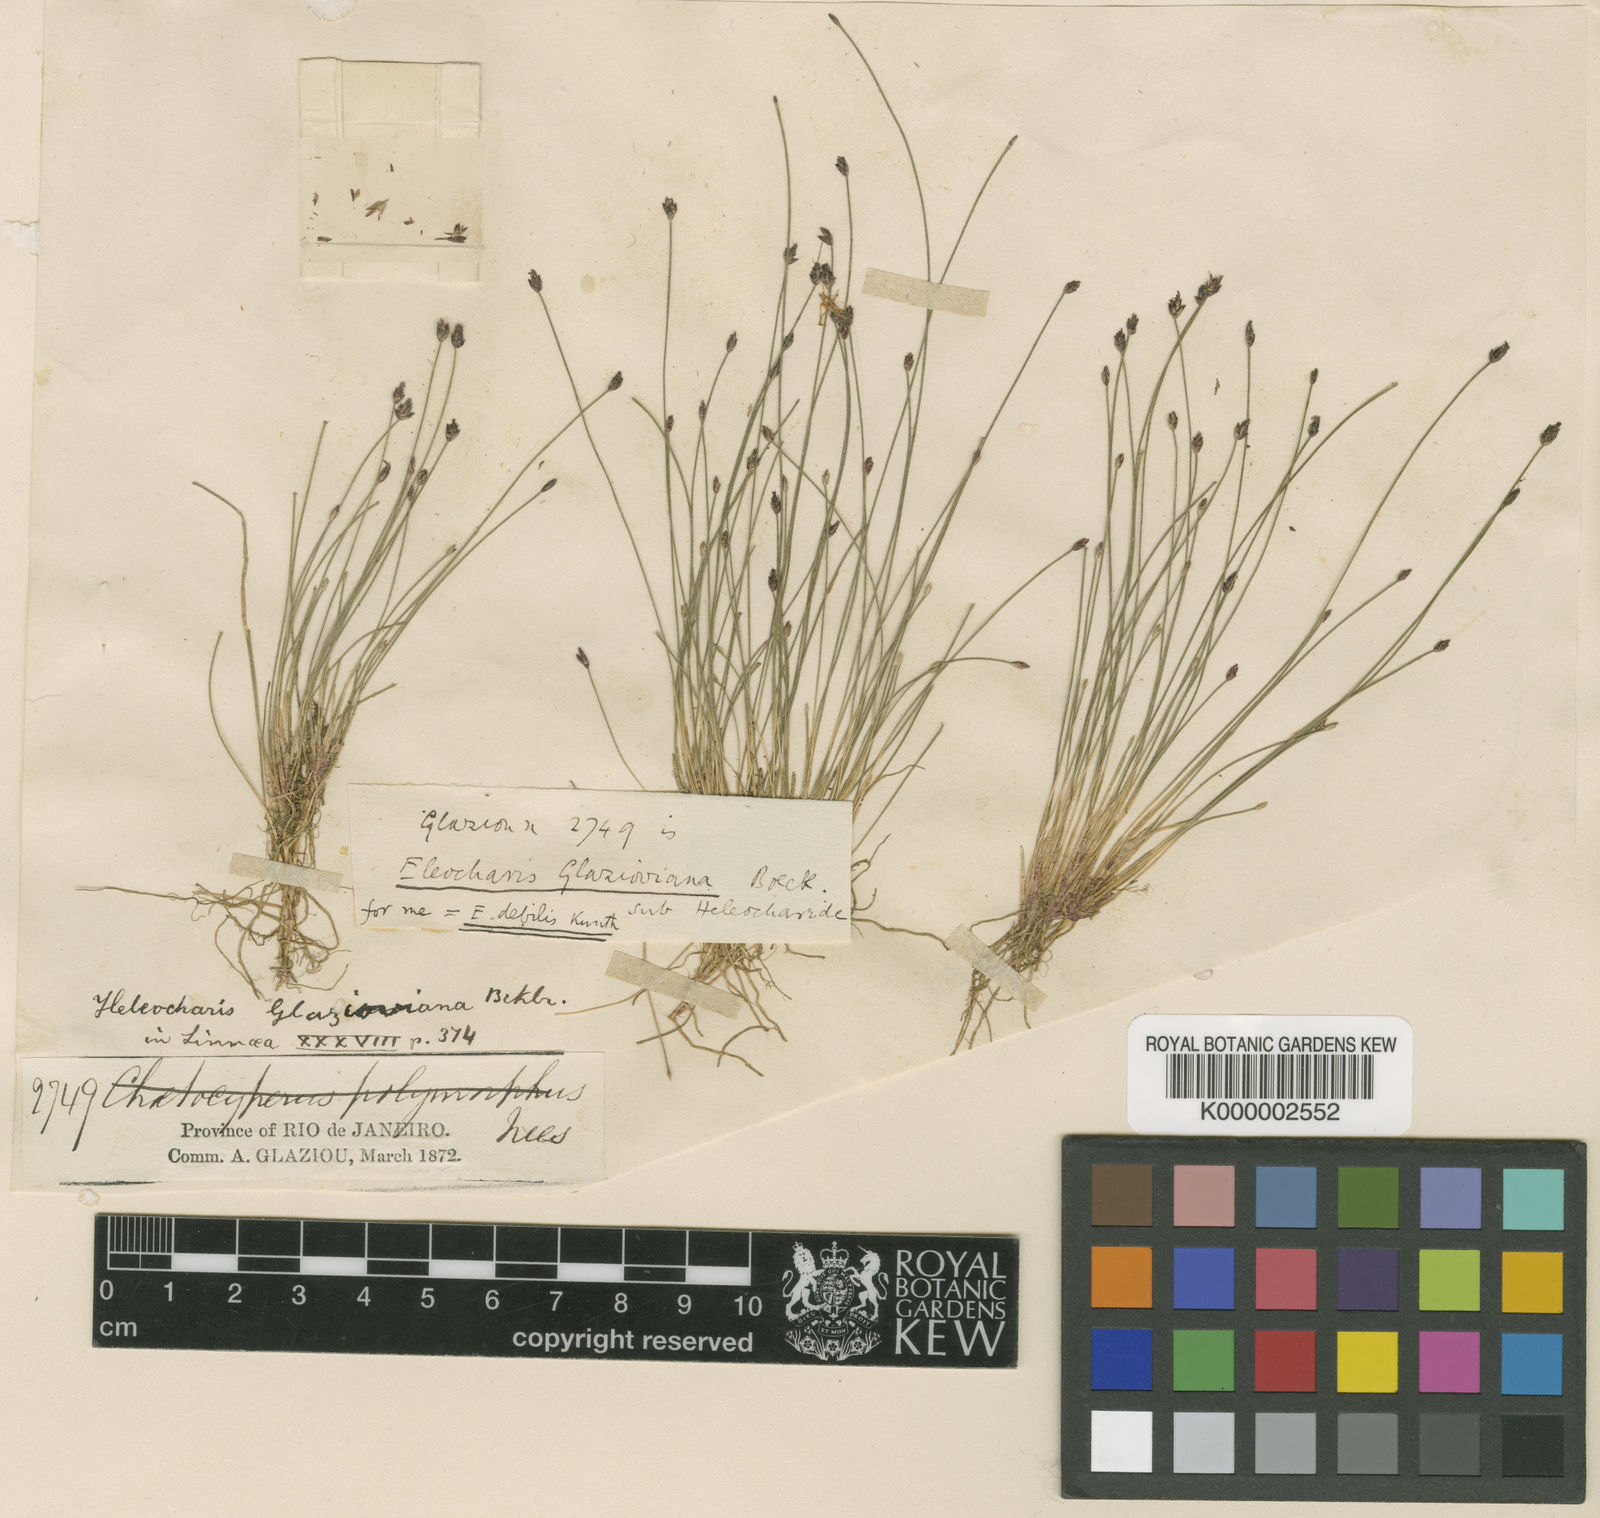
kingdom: Plantae
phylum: Tracheophyta
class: Liliopsida
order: Poales
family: Cyperaceae
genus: Eleocharis
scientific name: Eleocharis maculosa
